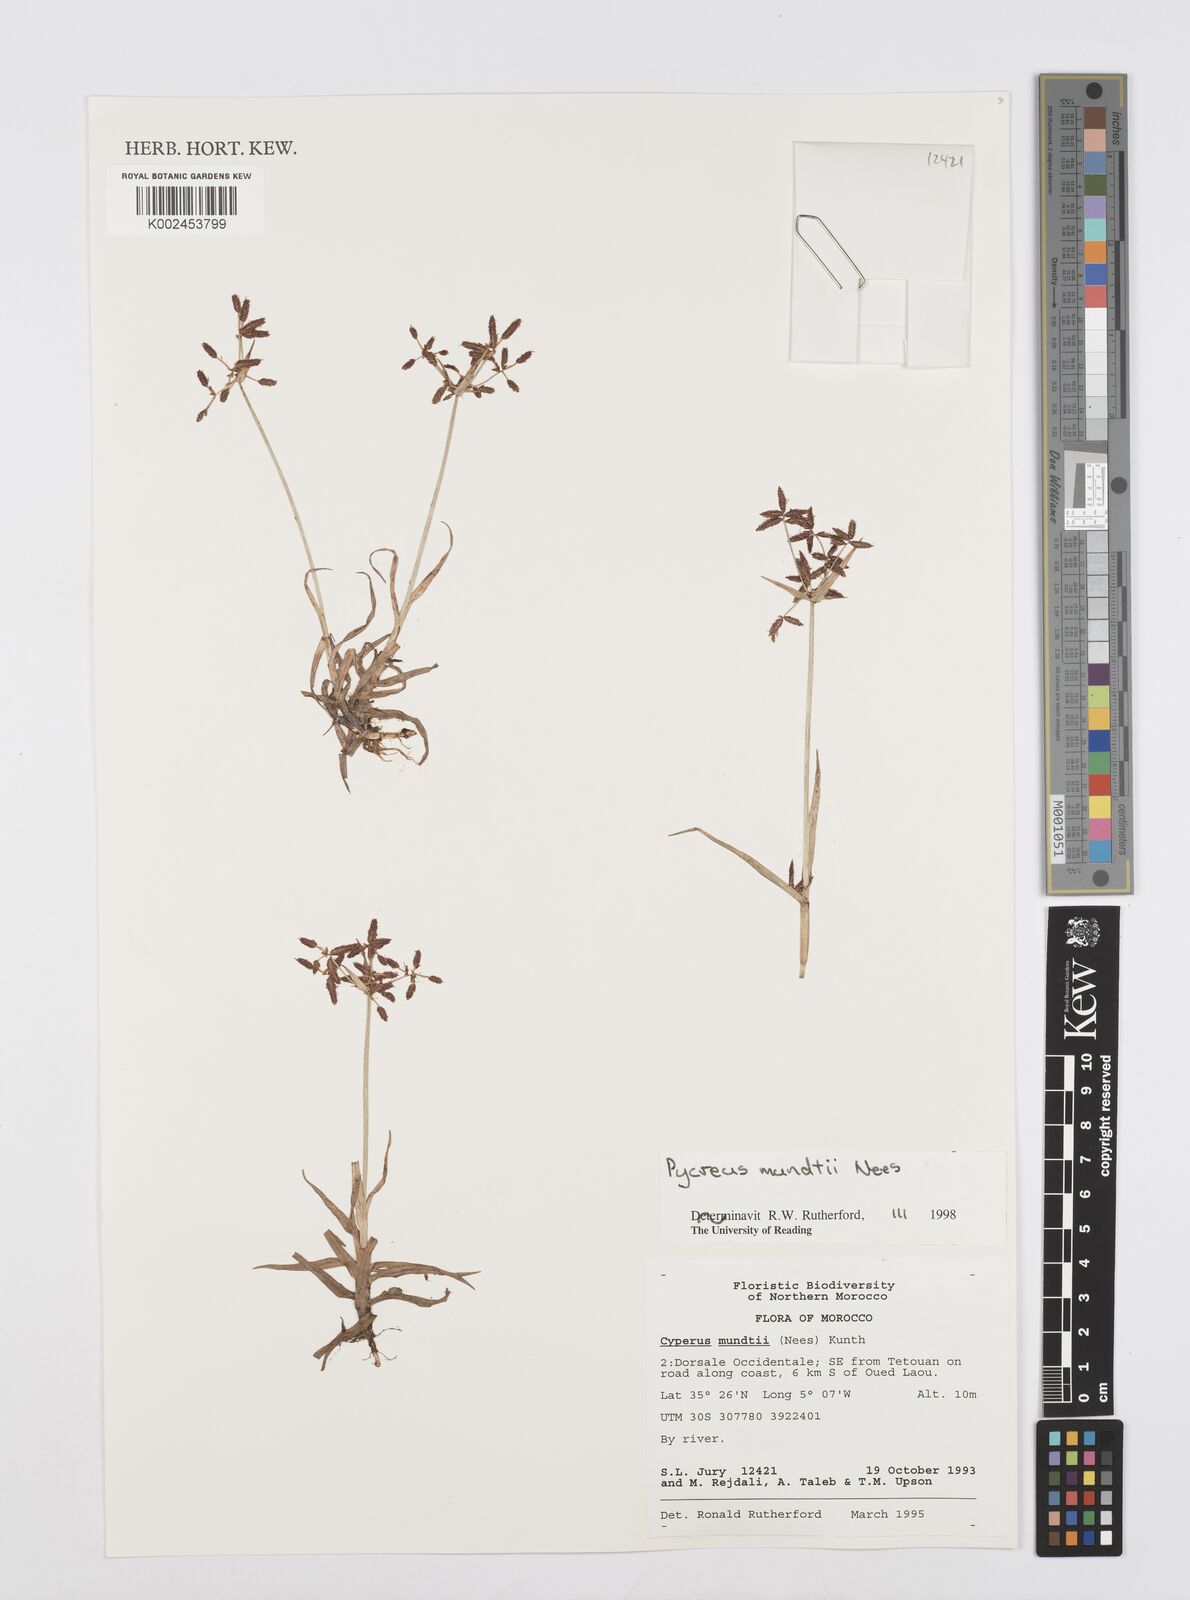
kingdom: Plantae
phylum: Tracheophyta
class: Liliopsida
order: Poales
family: Cyperaceae
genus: Cyperus
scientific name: Cyperus mundii
